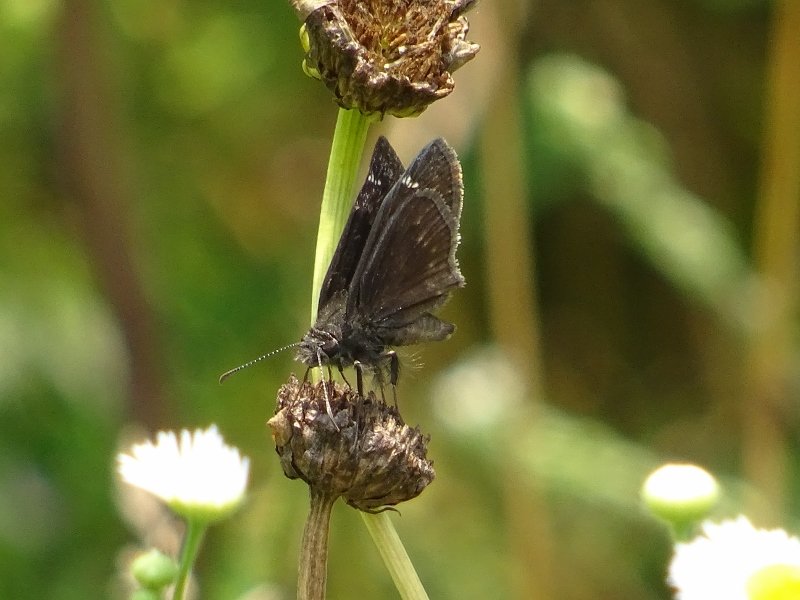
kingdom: Animalia
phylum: Arthropoda
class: Insecta
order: Lepidoptera
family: Hesperiidae
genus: Gesta
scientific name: Gesta
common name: Wild Indigo Duskywing
